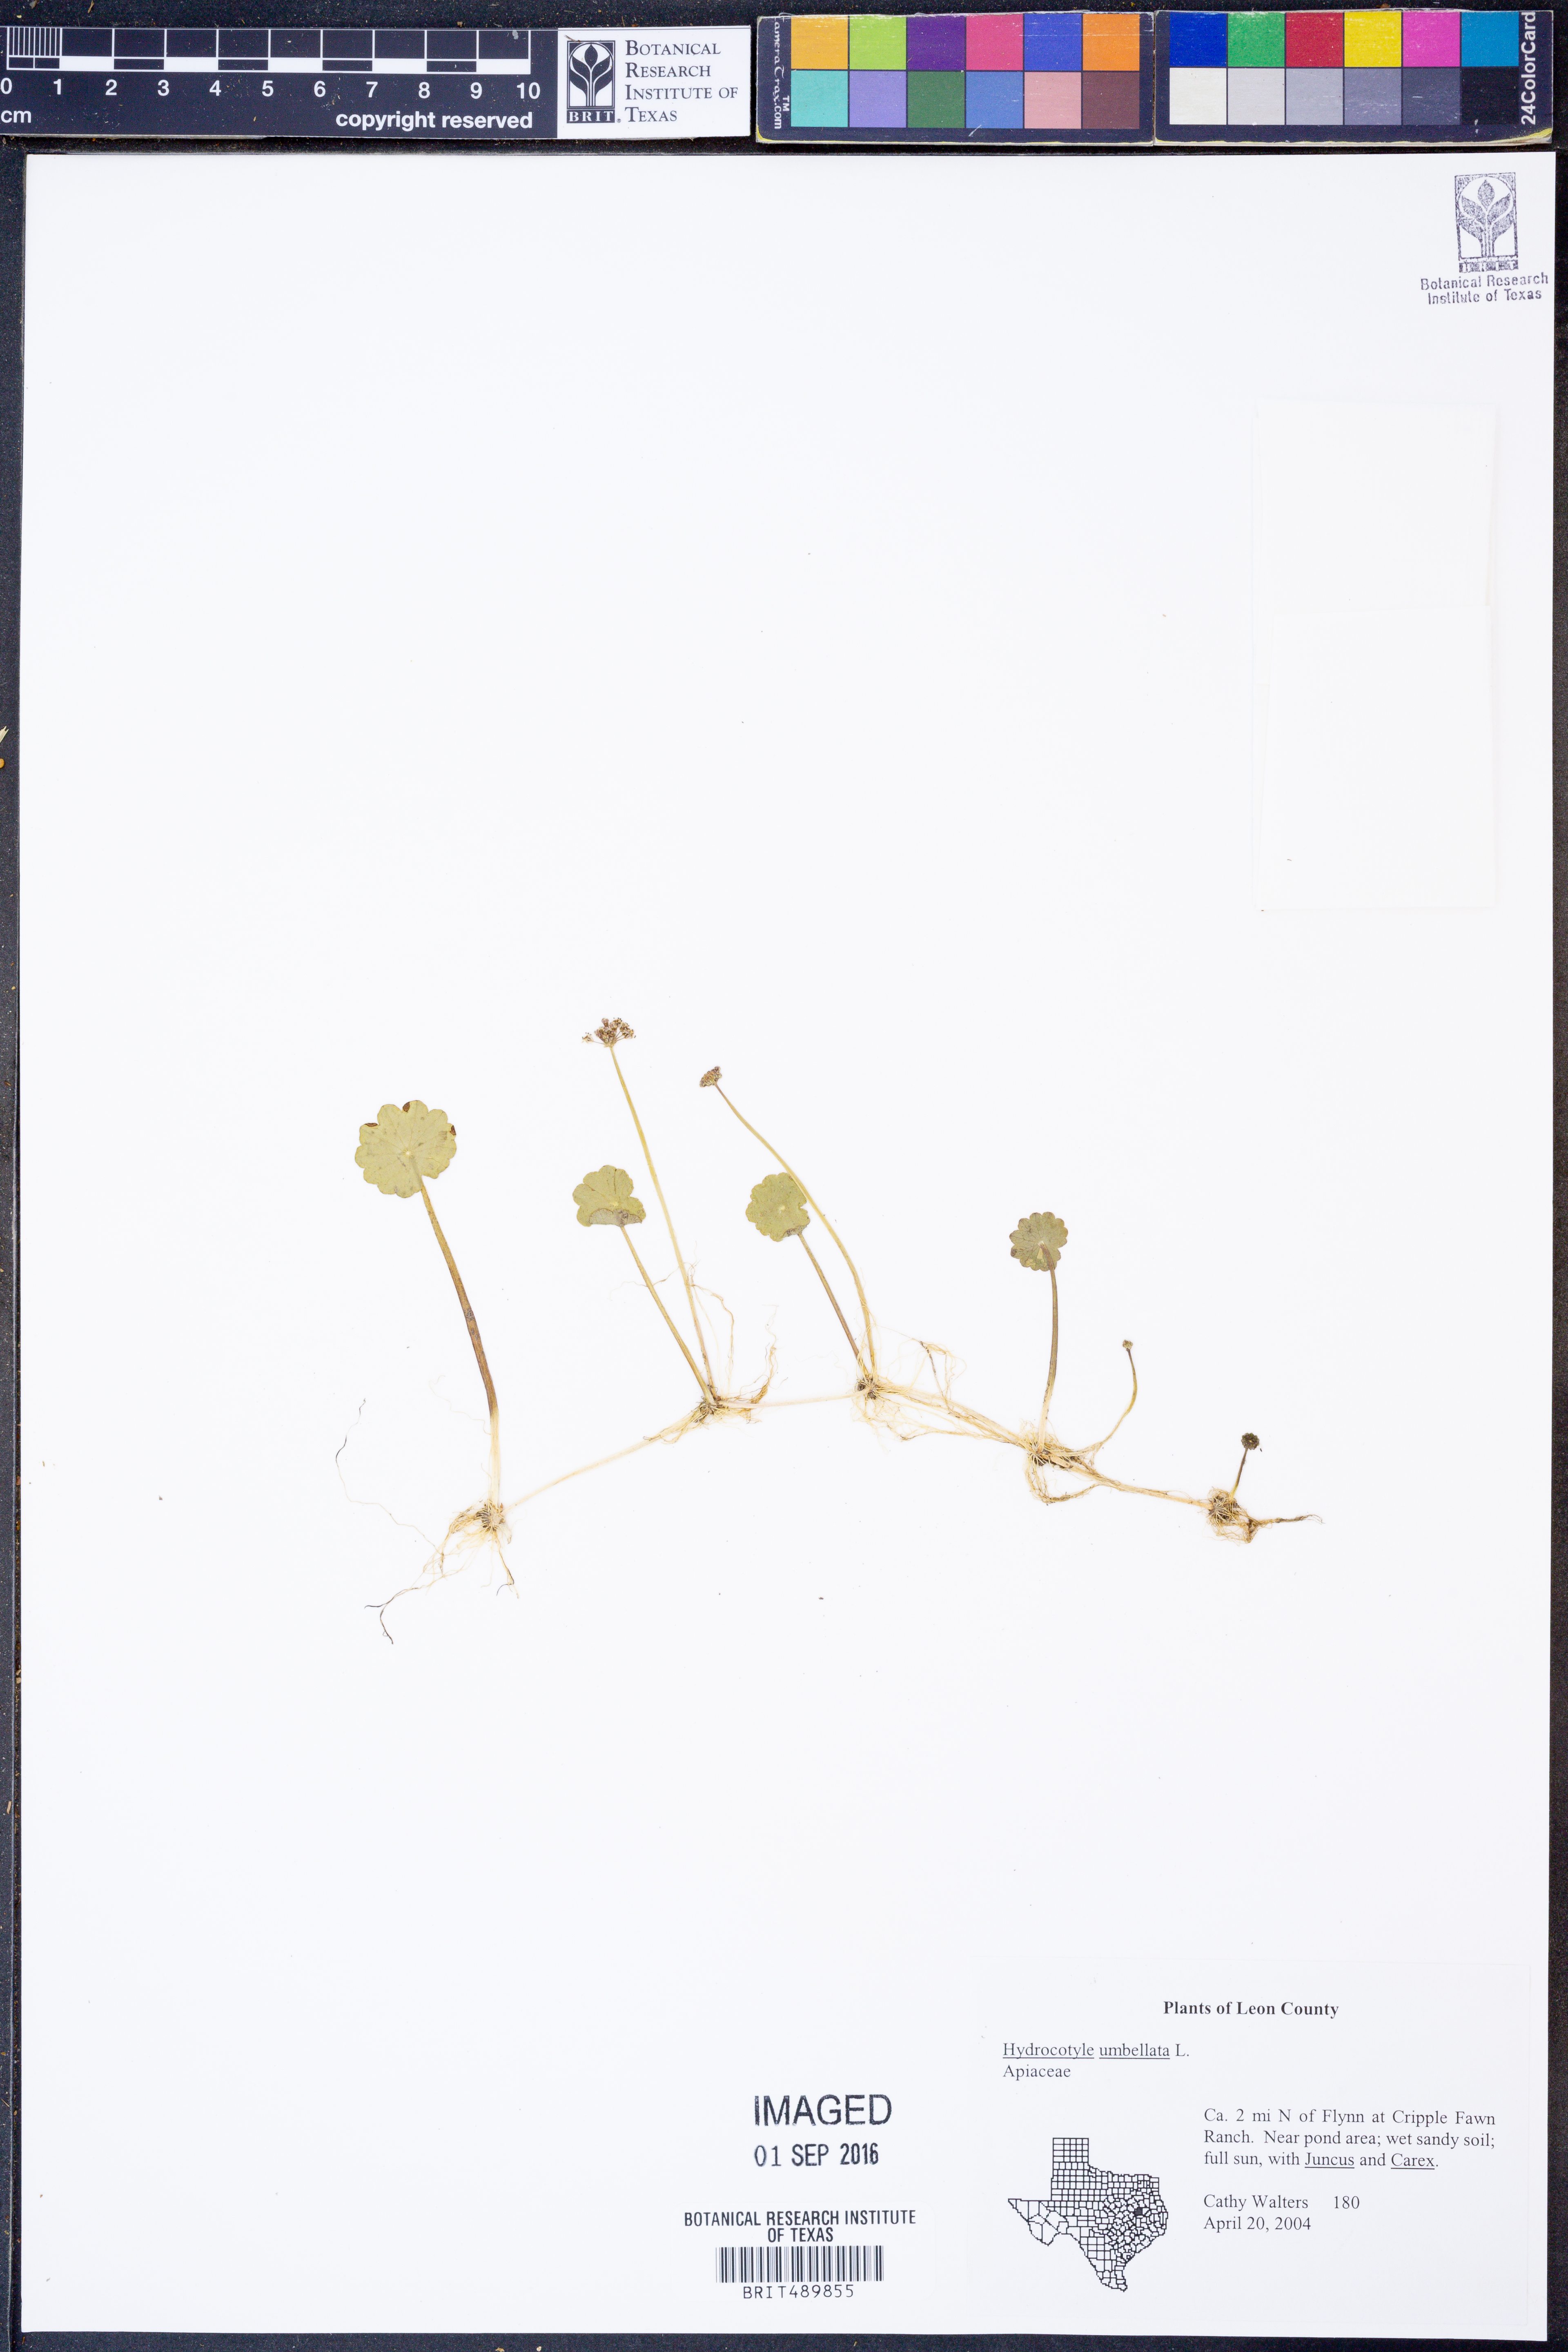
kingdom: Plantae
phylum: Tracheophyta
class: Magnoliopsida
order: Apiales
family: Araliaceae
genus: Hydrocotyle
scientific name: Hydrocotyle umbellata
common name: Water pennywort
